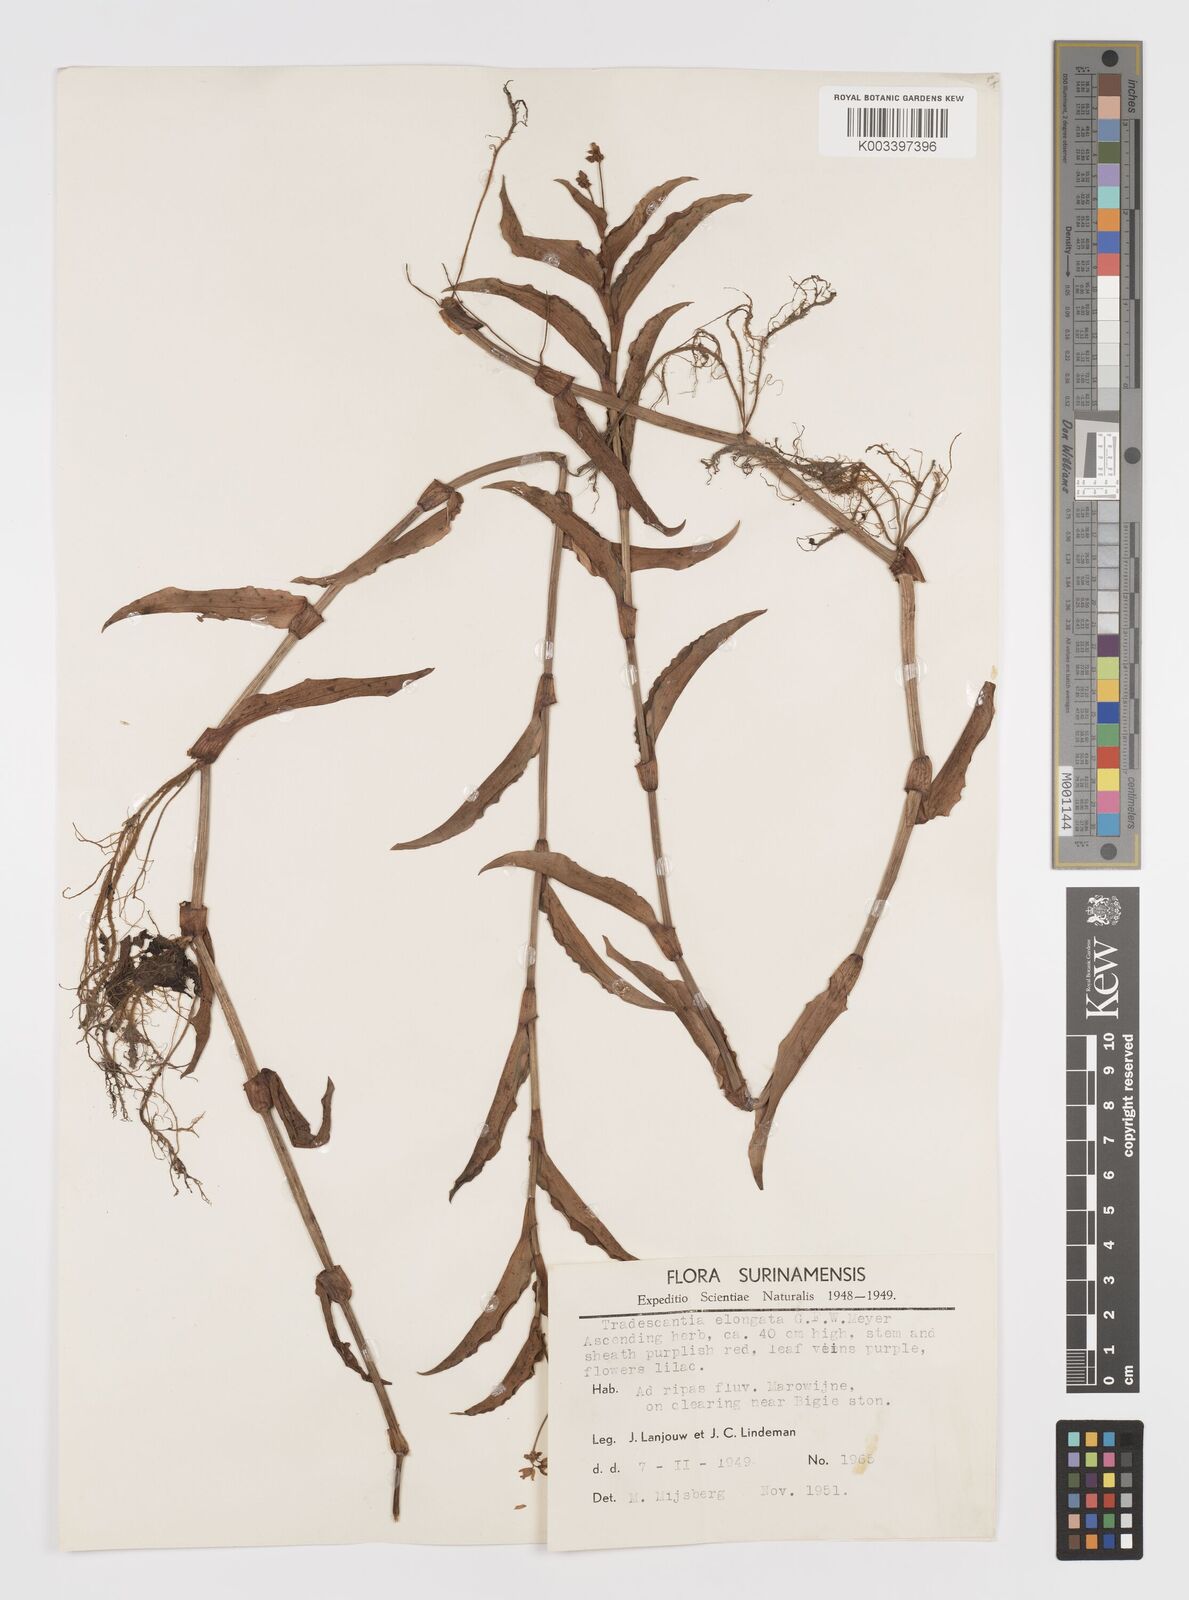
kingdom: Plantae
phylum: Tracheophyta
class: Liliopsida
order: Commelinales
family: Commelinaceae
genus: Callisia
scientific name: Callisia serrulata
